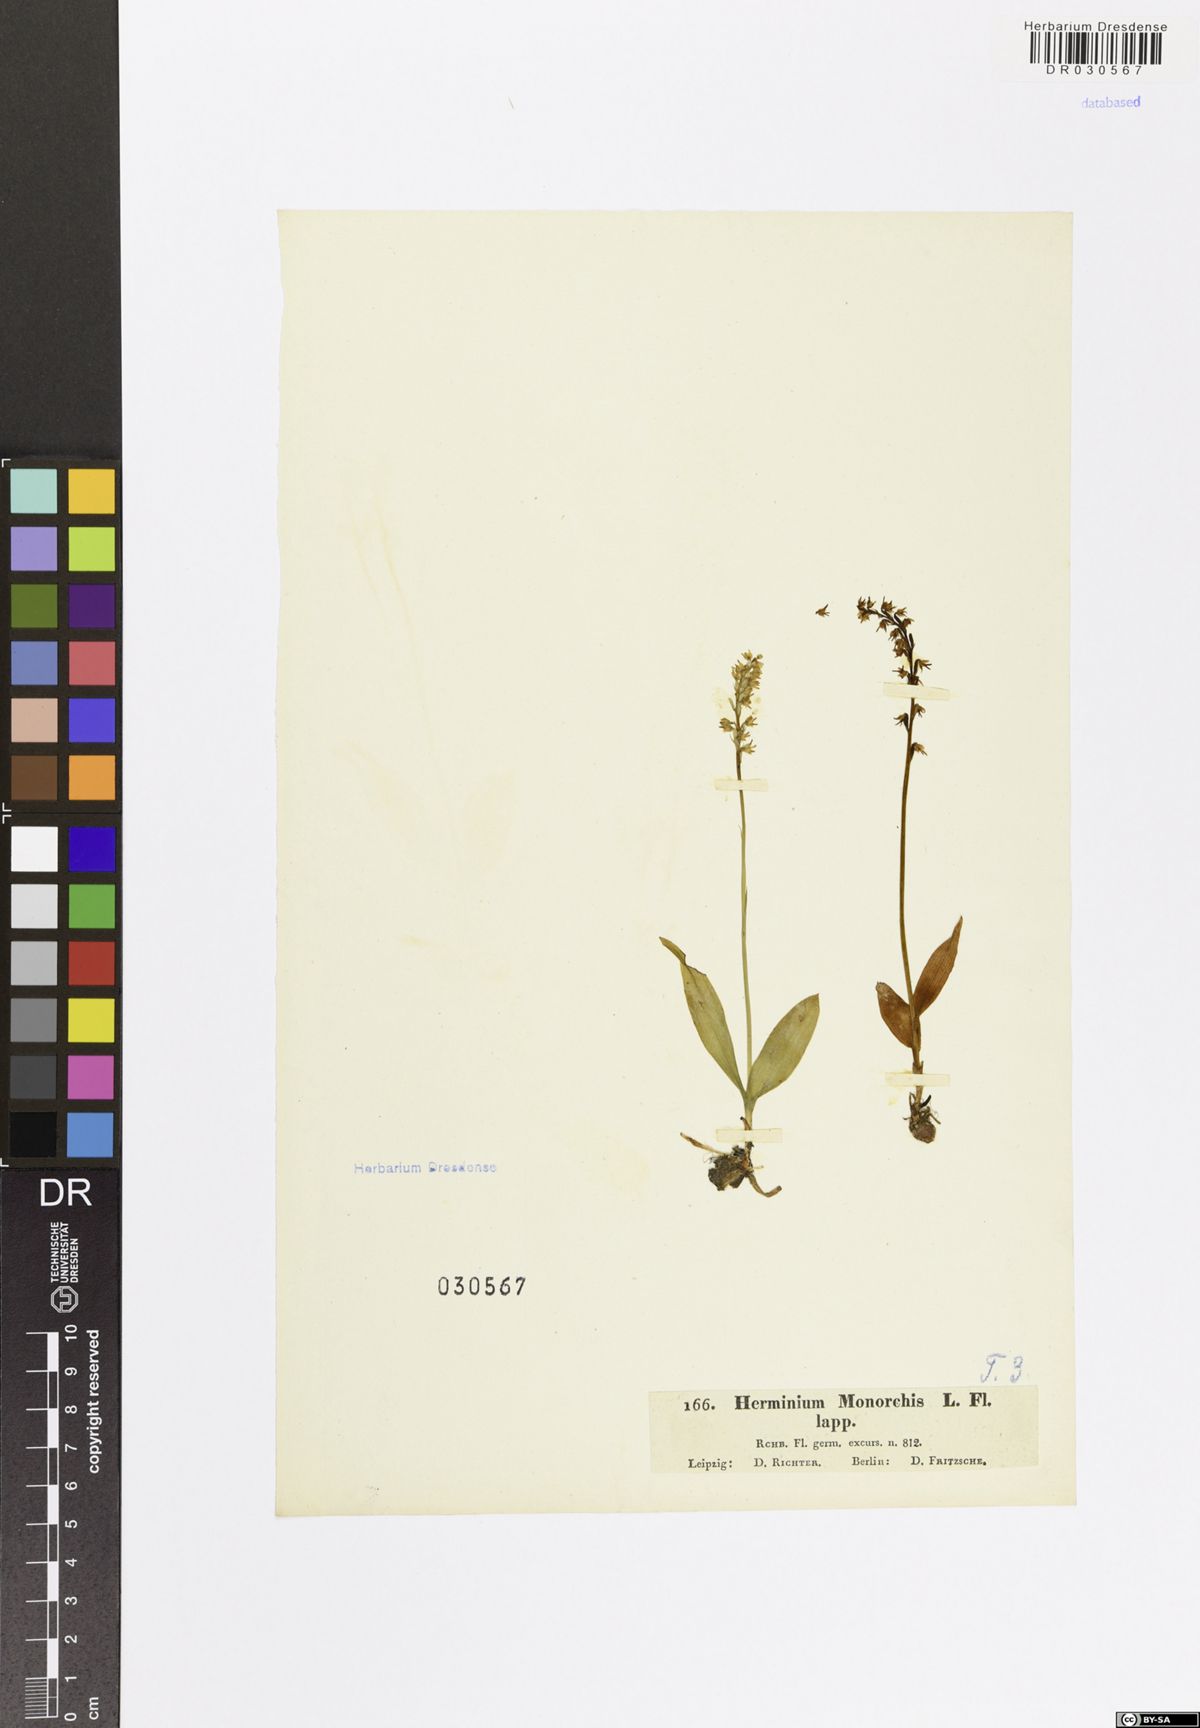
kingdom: Plantae
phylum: Tracheophyta
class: Liliopsida
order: Asparagales
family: Orchidaceae
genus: Herminium
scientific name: Herminium monorchis
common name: Musk orchid
